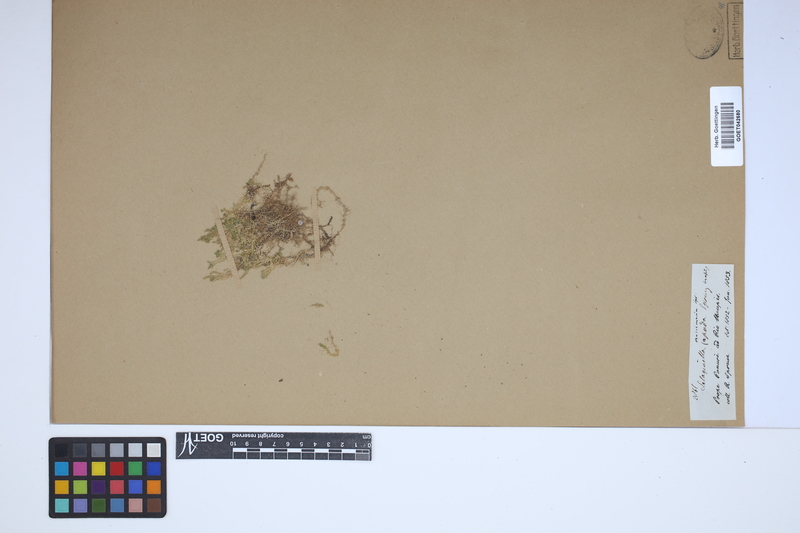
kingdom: Plantae
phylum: Tracheophyta
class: Lycopodiopsida
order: Selaginellales
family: Selaginellaceae
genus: Selaginella
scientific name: Selaginella muscosa
